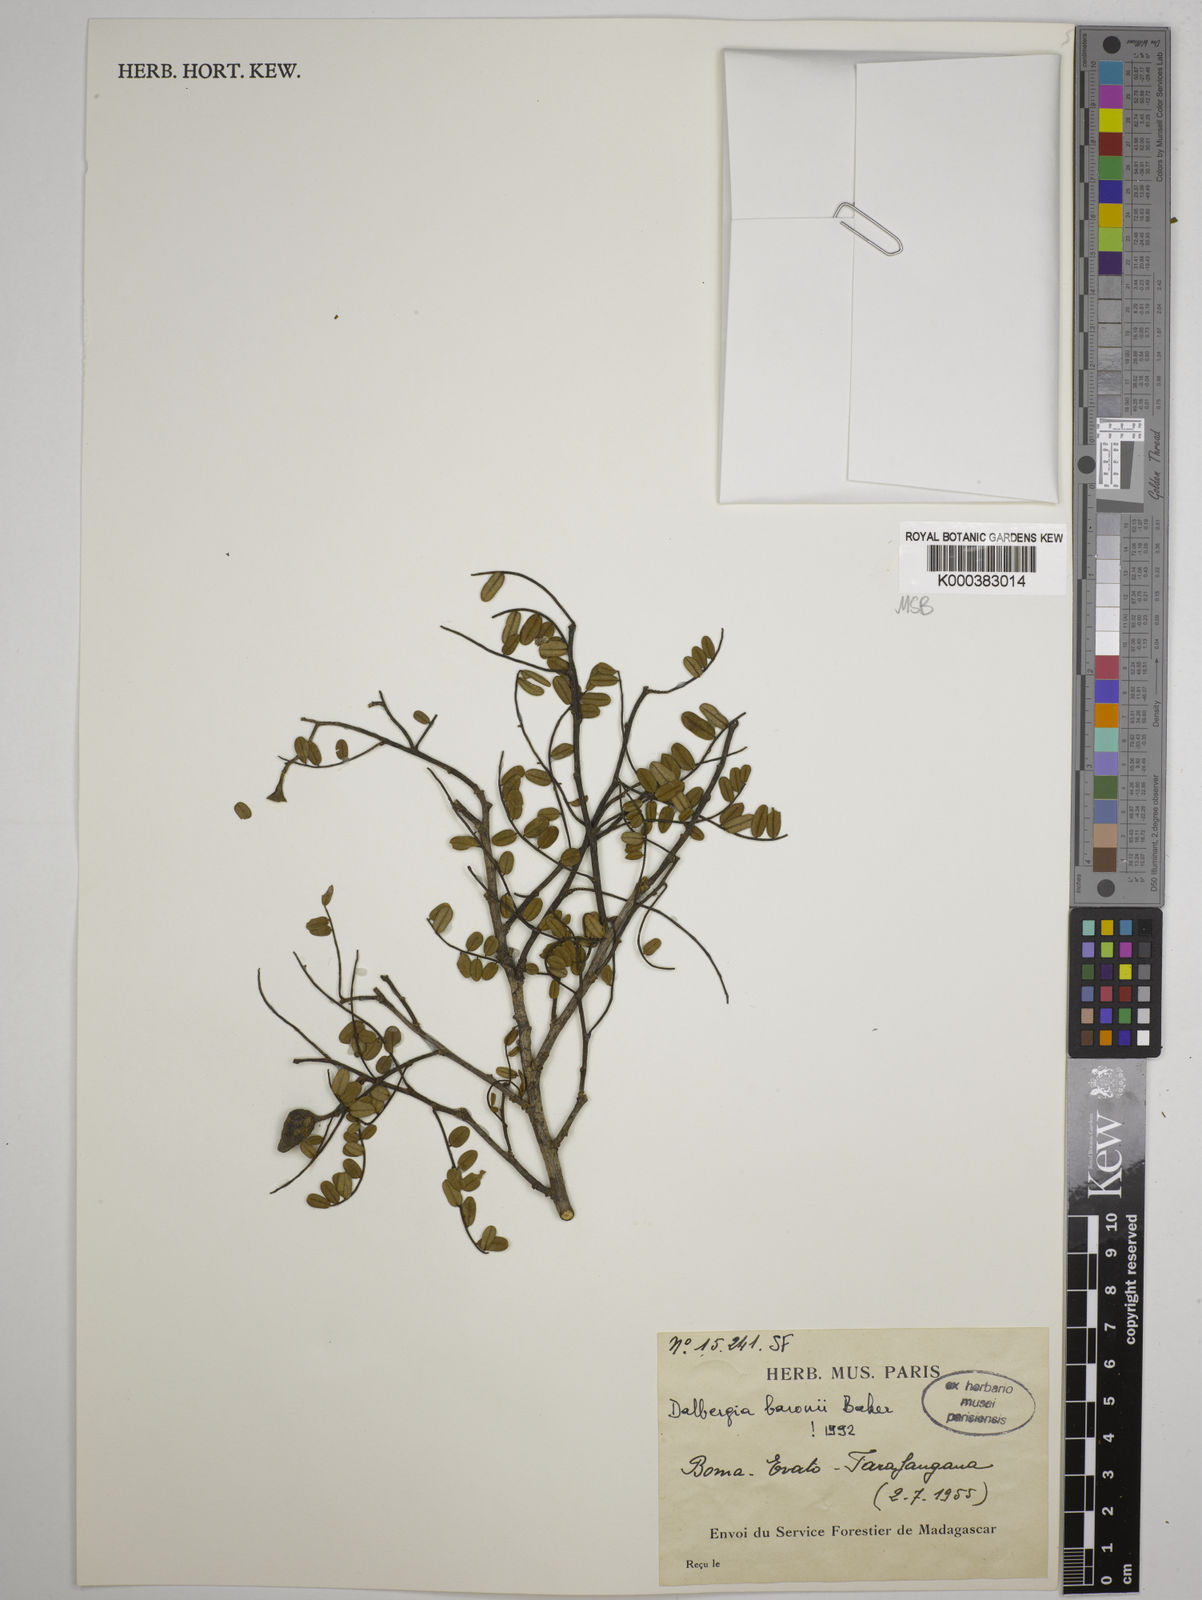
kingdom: Plantae
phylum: Tracheophyta
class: Magnoliopsida
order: Fabales
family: Fabaceae
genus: Dalbergia
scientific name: Dalbergia baronii
